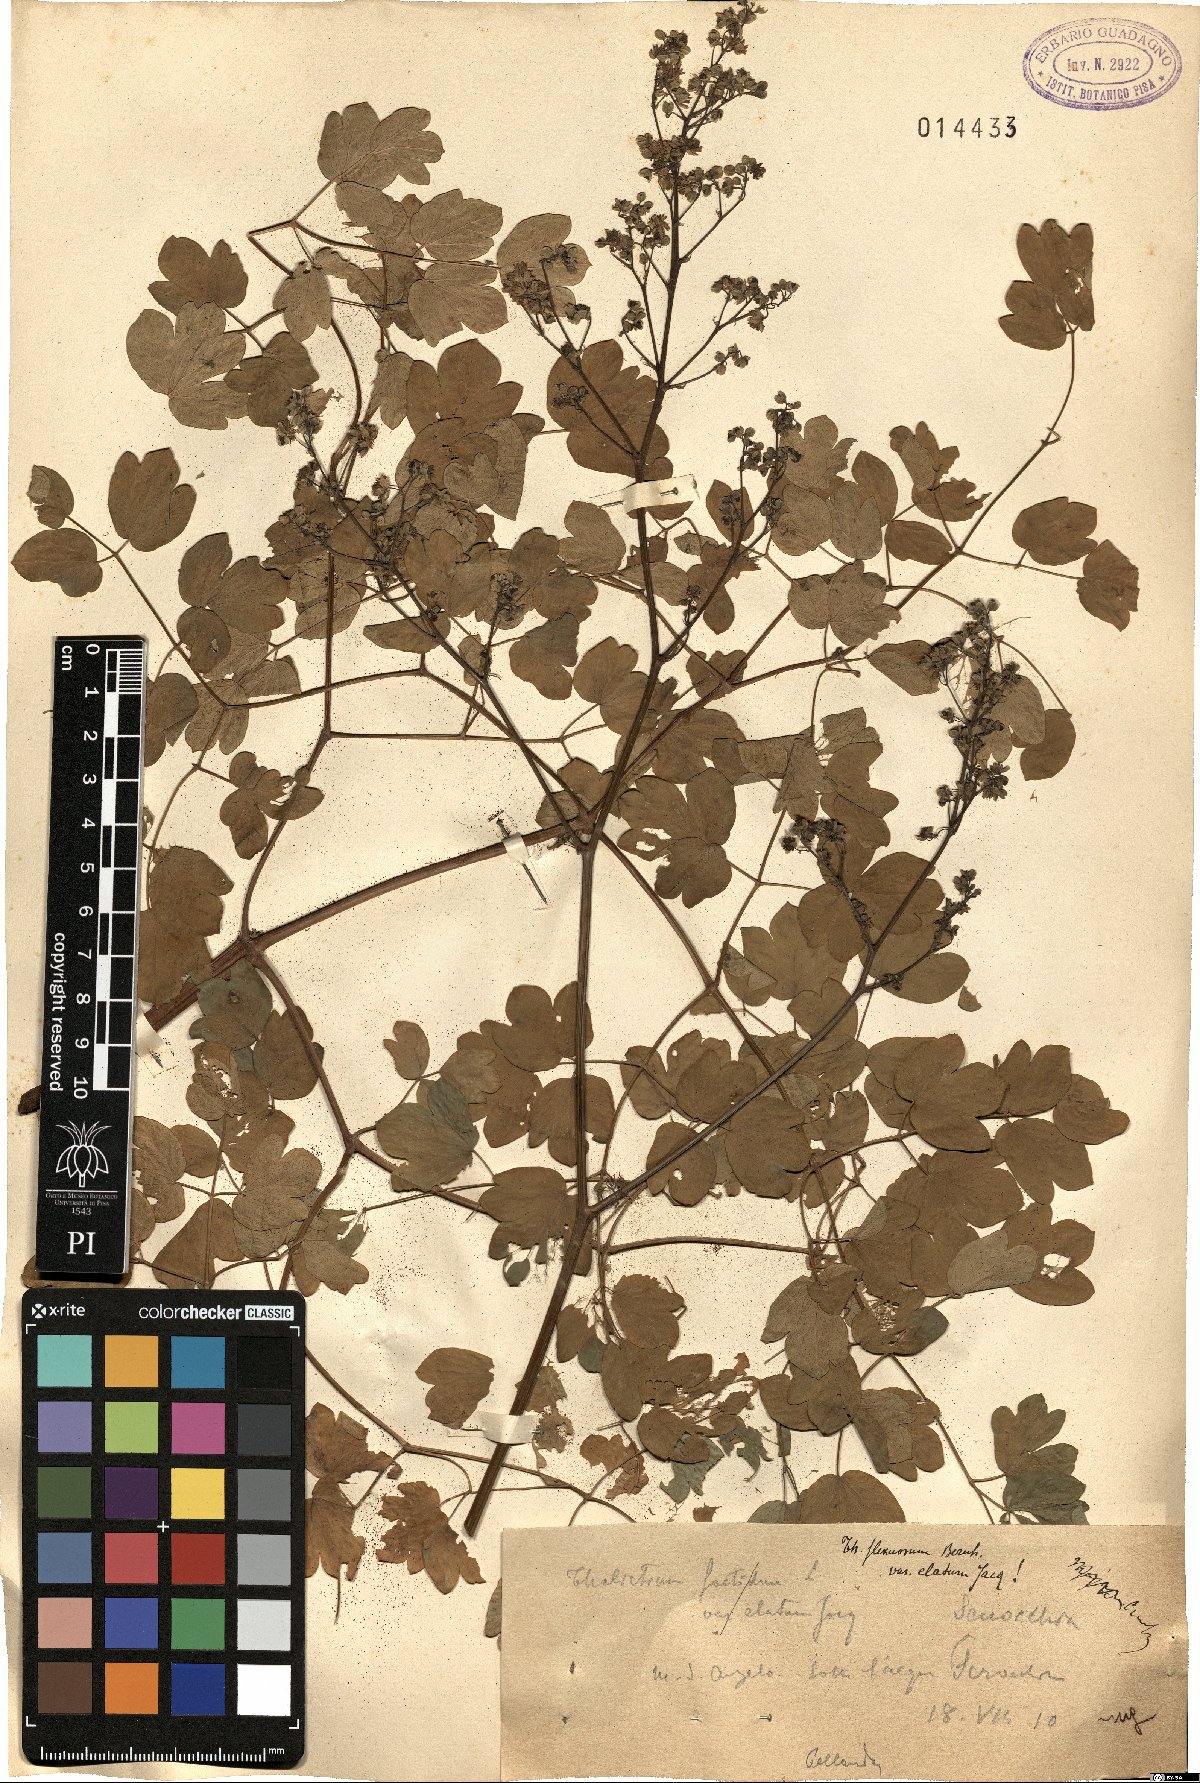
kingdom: Plantae
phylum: Tracheophyta
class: Magnoliopsida
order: Ranunculales
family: Ranunculaceae
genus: Thalictrum
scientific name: Thalictrum minus
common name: Lesser meadow-rue
